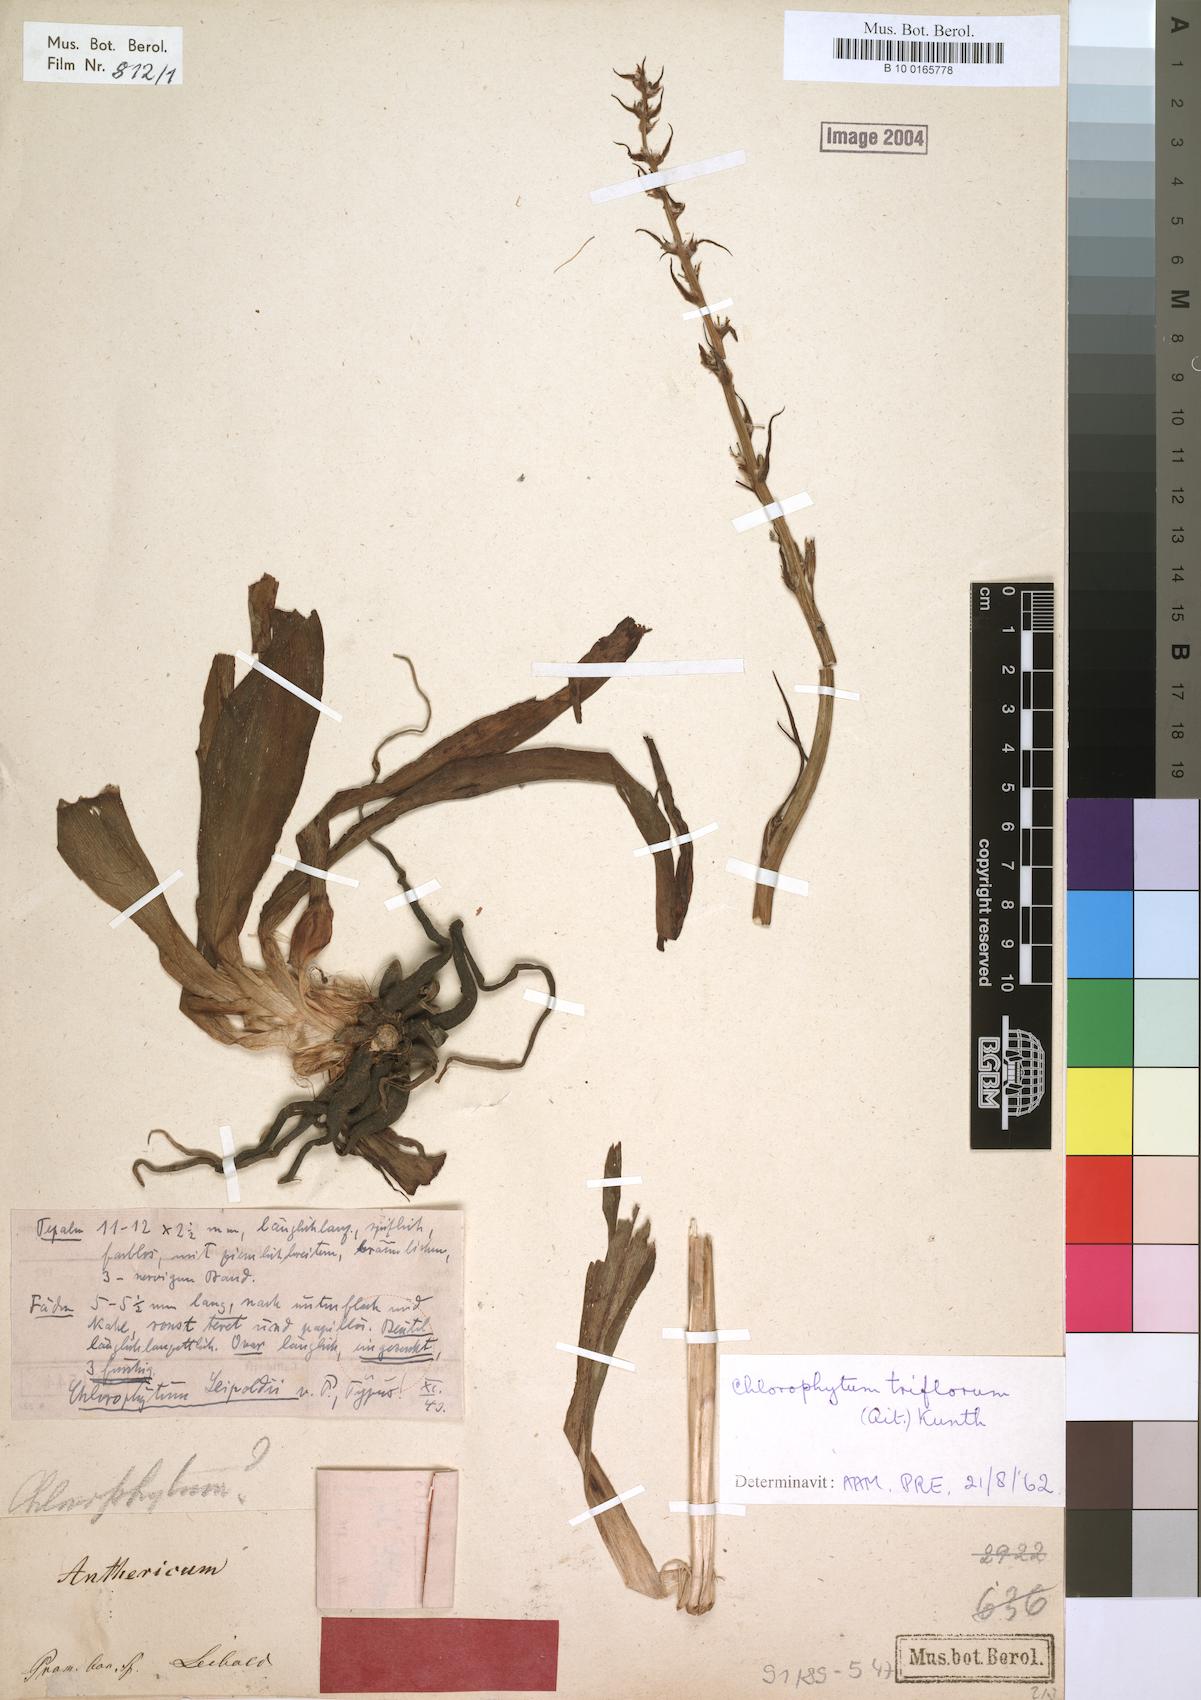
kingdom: Plantae
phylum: Tracheophyta
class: Liliopsida
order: Asparagales
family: Asparagaceae
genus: Chlorophytum
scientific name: Chlorophytum triflorum
